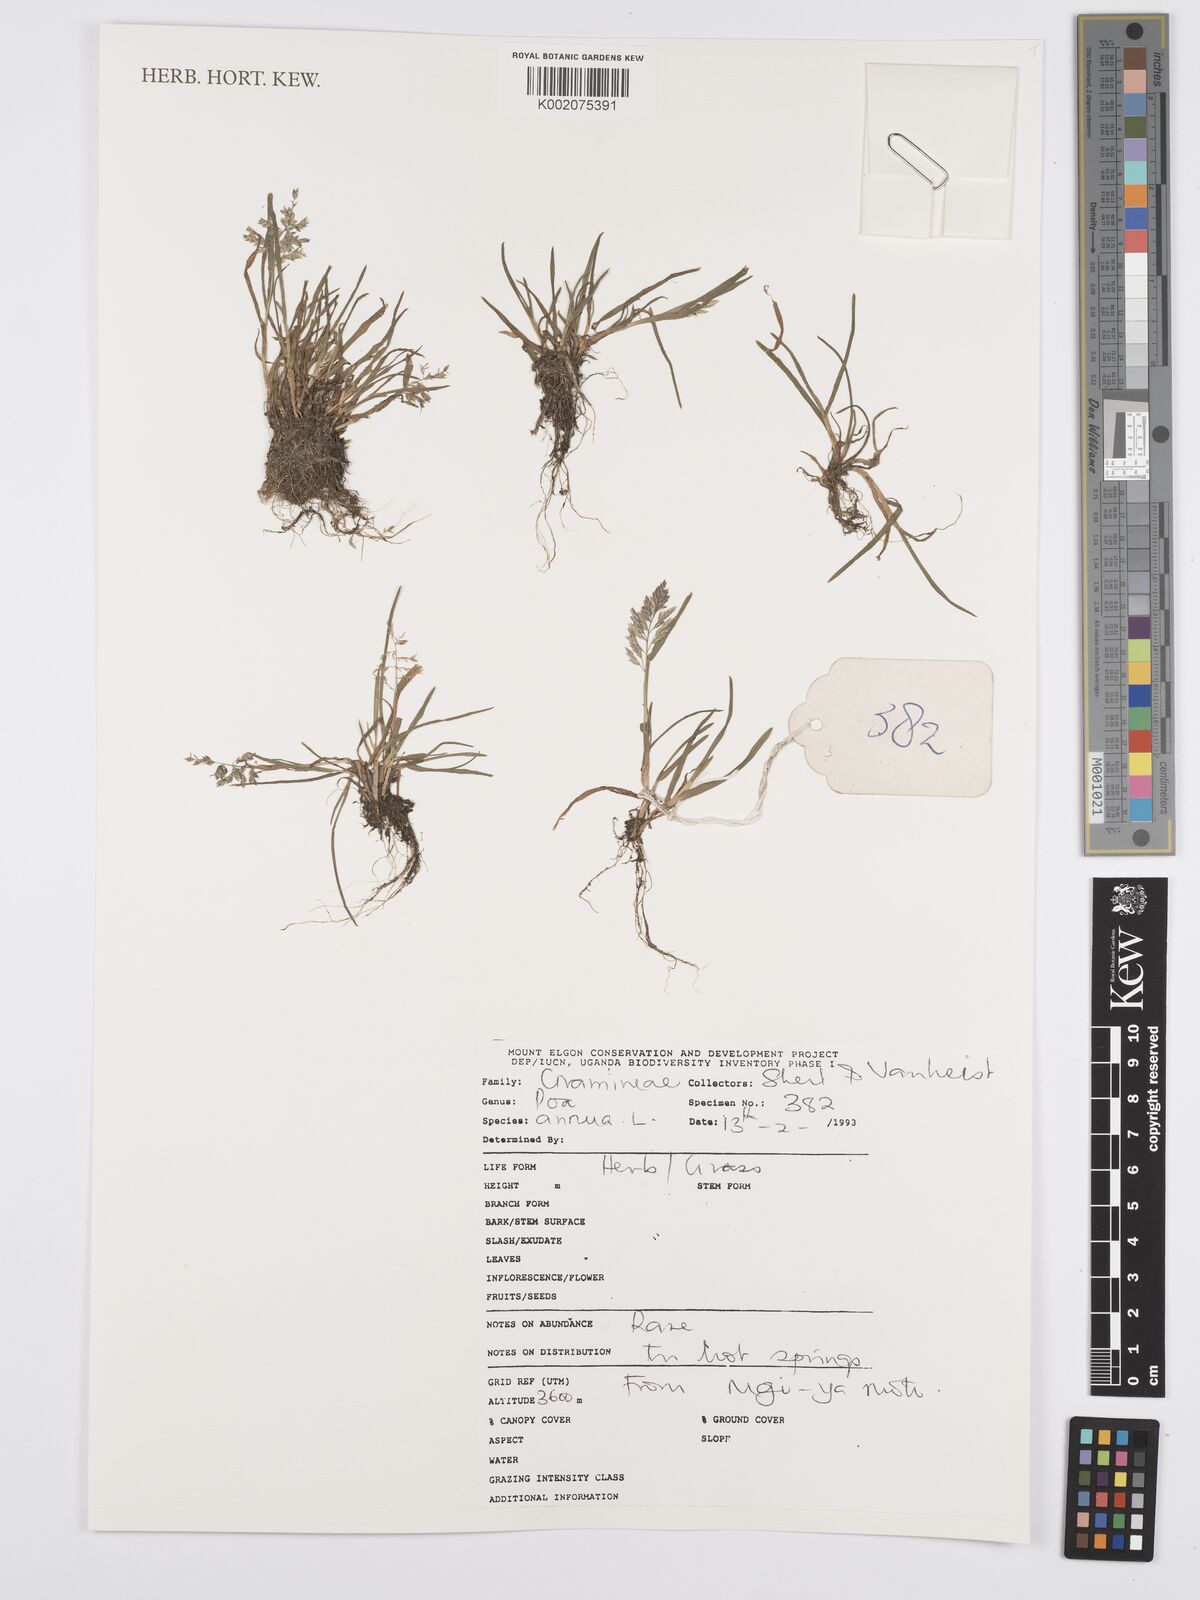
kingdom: Plantae
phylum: Tracheophyta
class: Liliopsida
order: Poales
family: Poaceae
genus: Poa
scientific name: Poa annua
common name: Annual bluegrass
